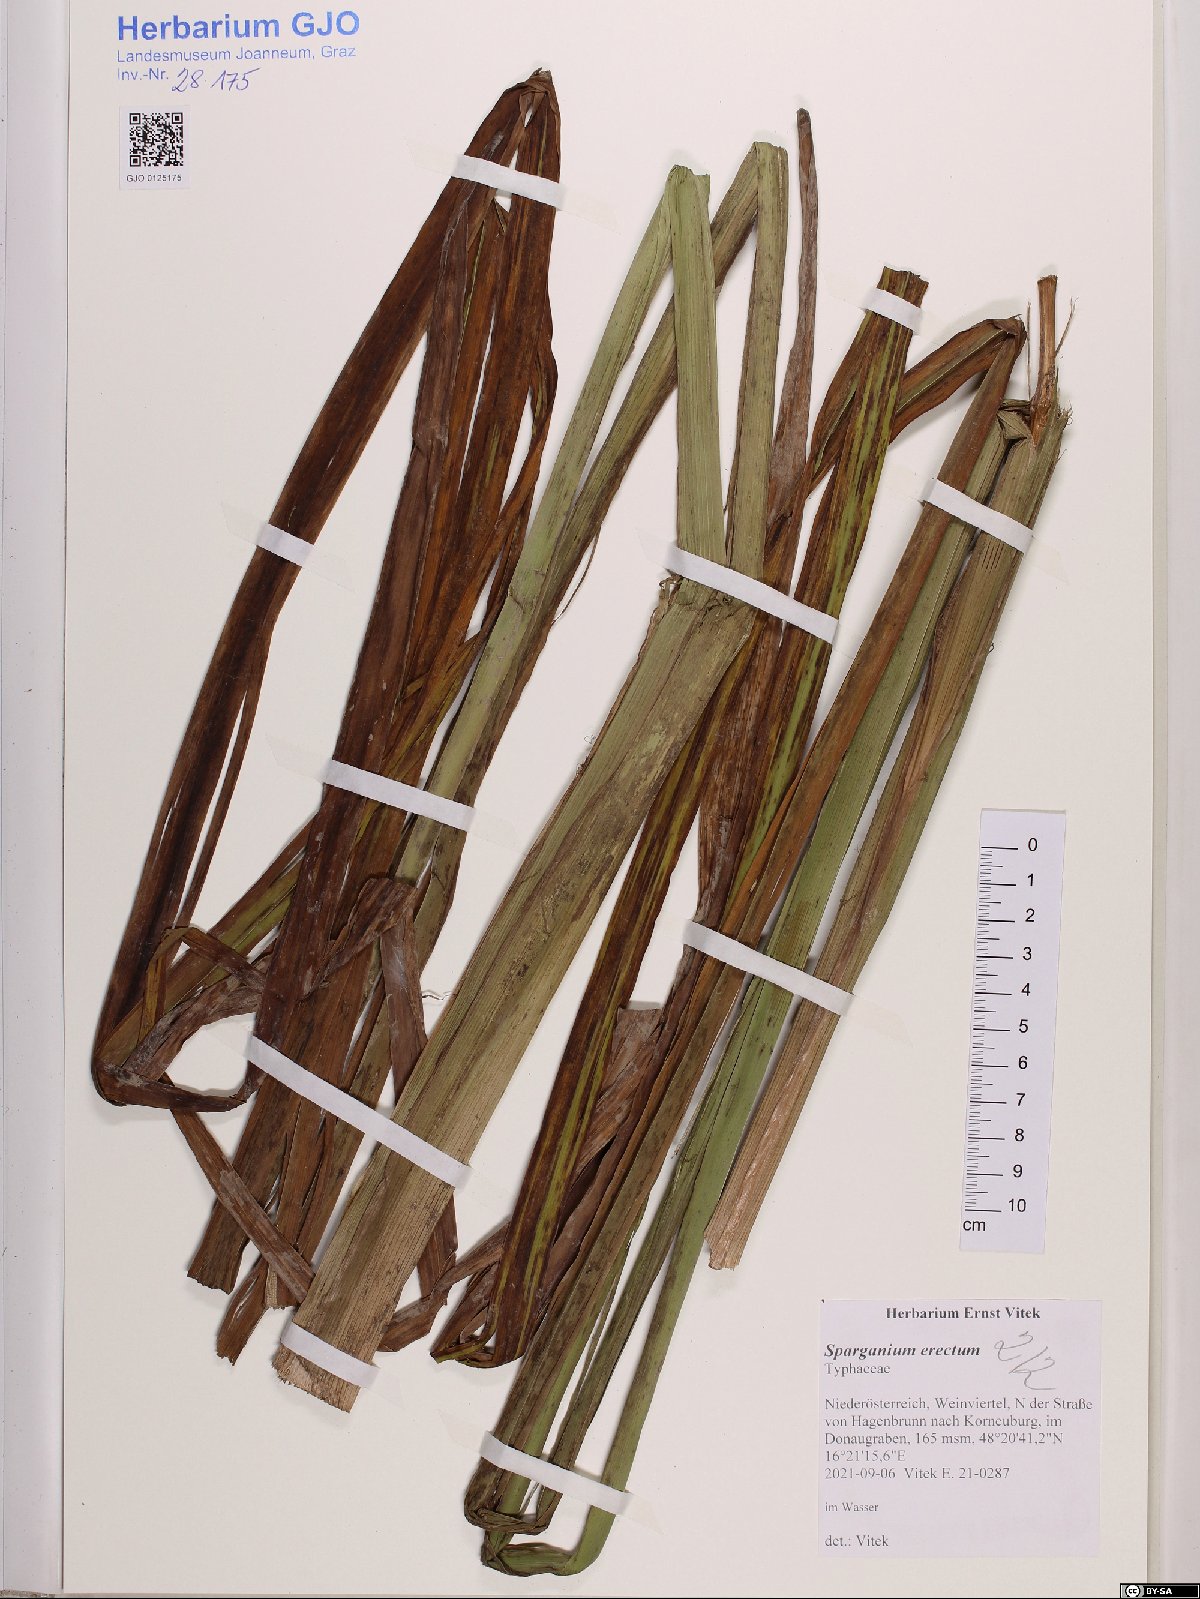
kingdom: Plantae
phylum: Tracheophyta
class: Liliopsida
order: Poales
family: Typhaceae
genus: Sparganium
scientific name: Sparganium erectum
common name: Branched bur-reed
